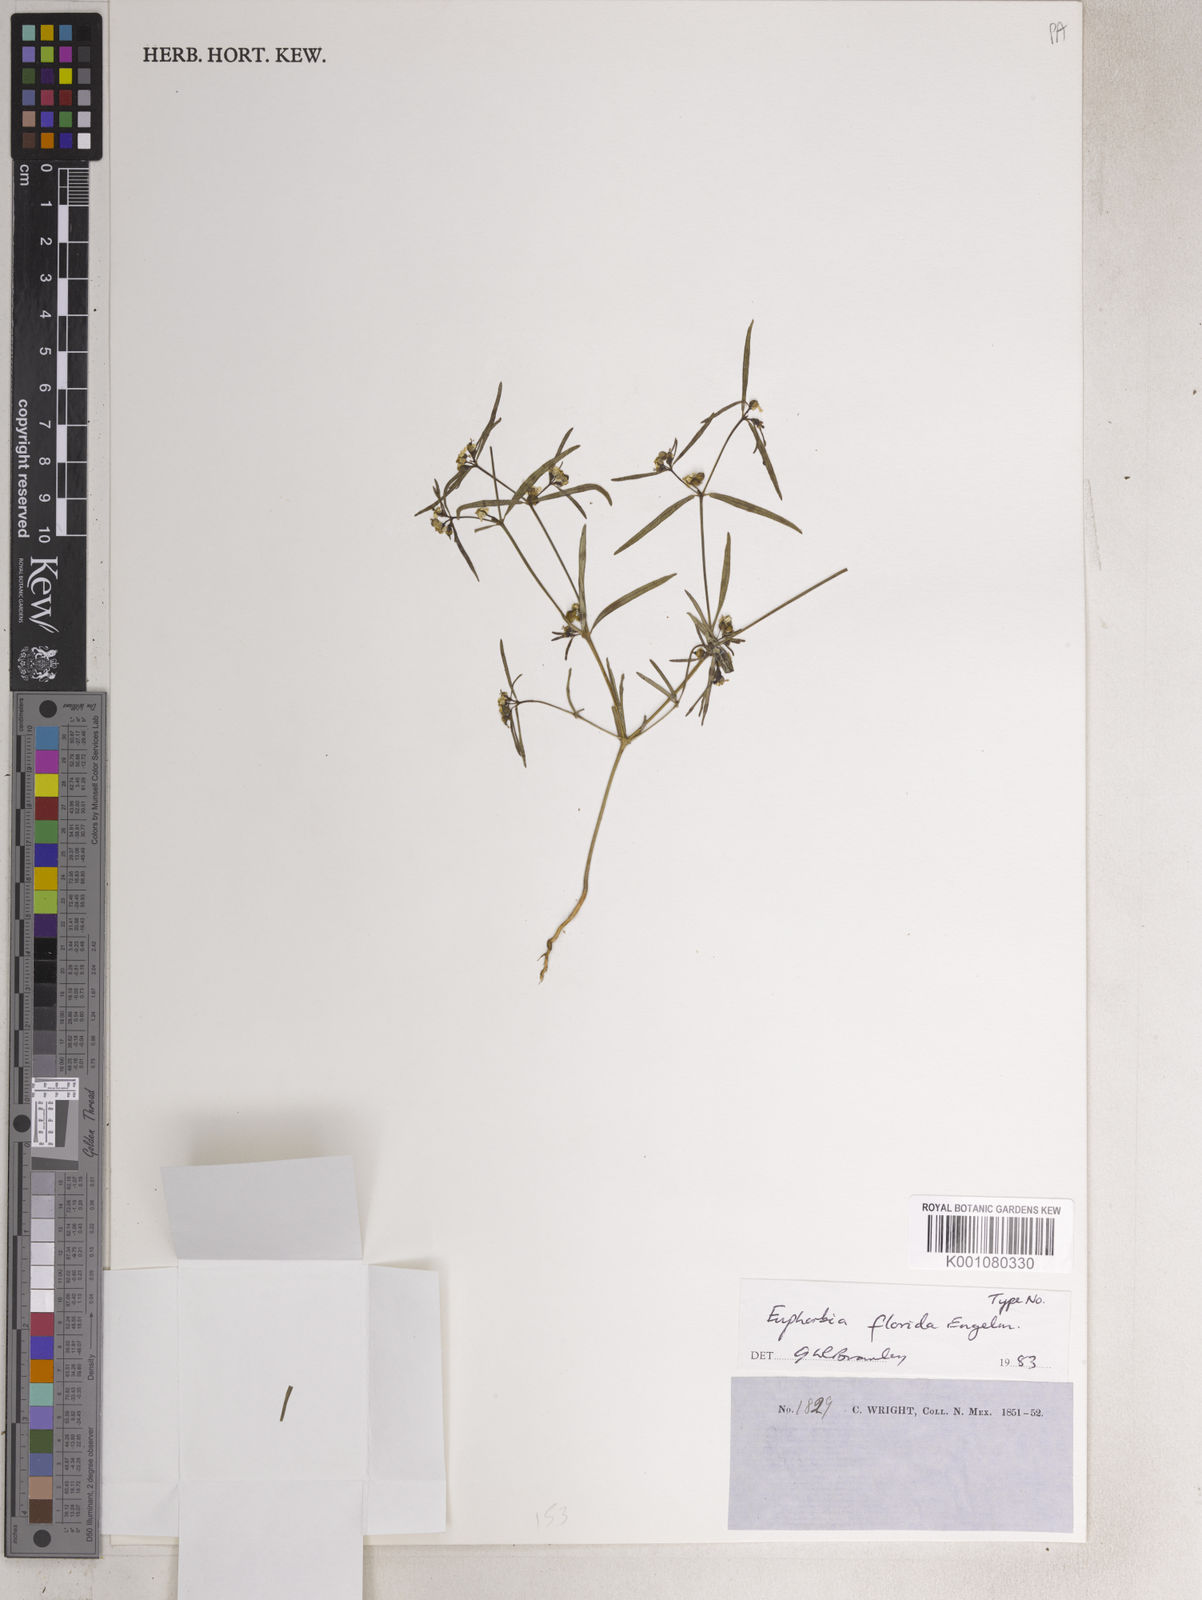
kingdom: Plantae
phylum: Tracheophyta
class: Magnoliopsida
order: Malpighiales
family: Euphorbiaceae
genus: Euphorbia
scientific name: Euphorbia florida
